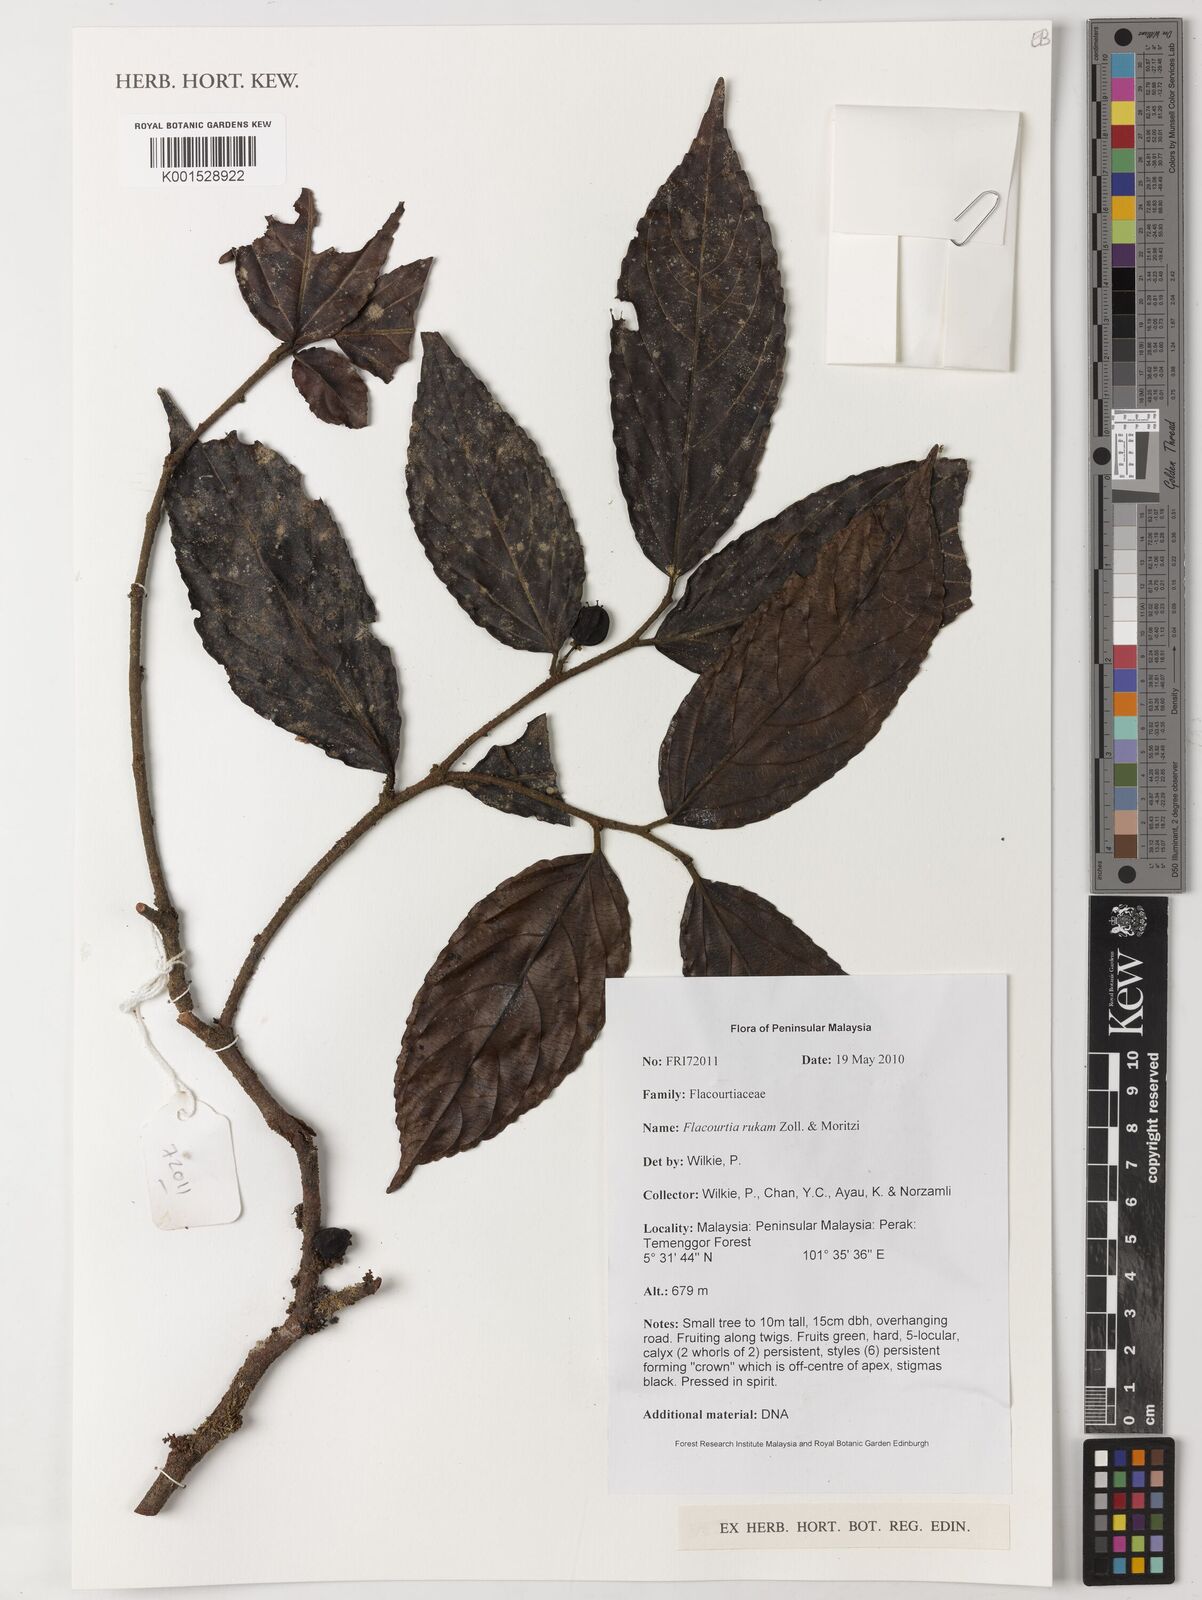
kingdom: Plantae
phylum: Tracheophyta
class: Magnoliopsida
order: Malpighiales
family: Salicaceae
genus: Flacourtia
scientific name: Flacourtia rukam
